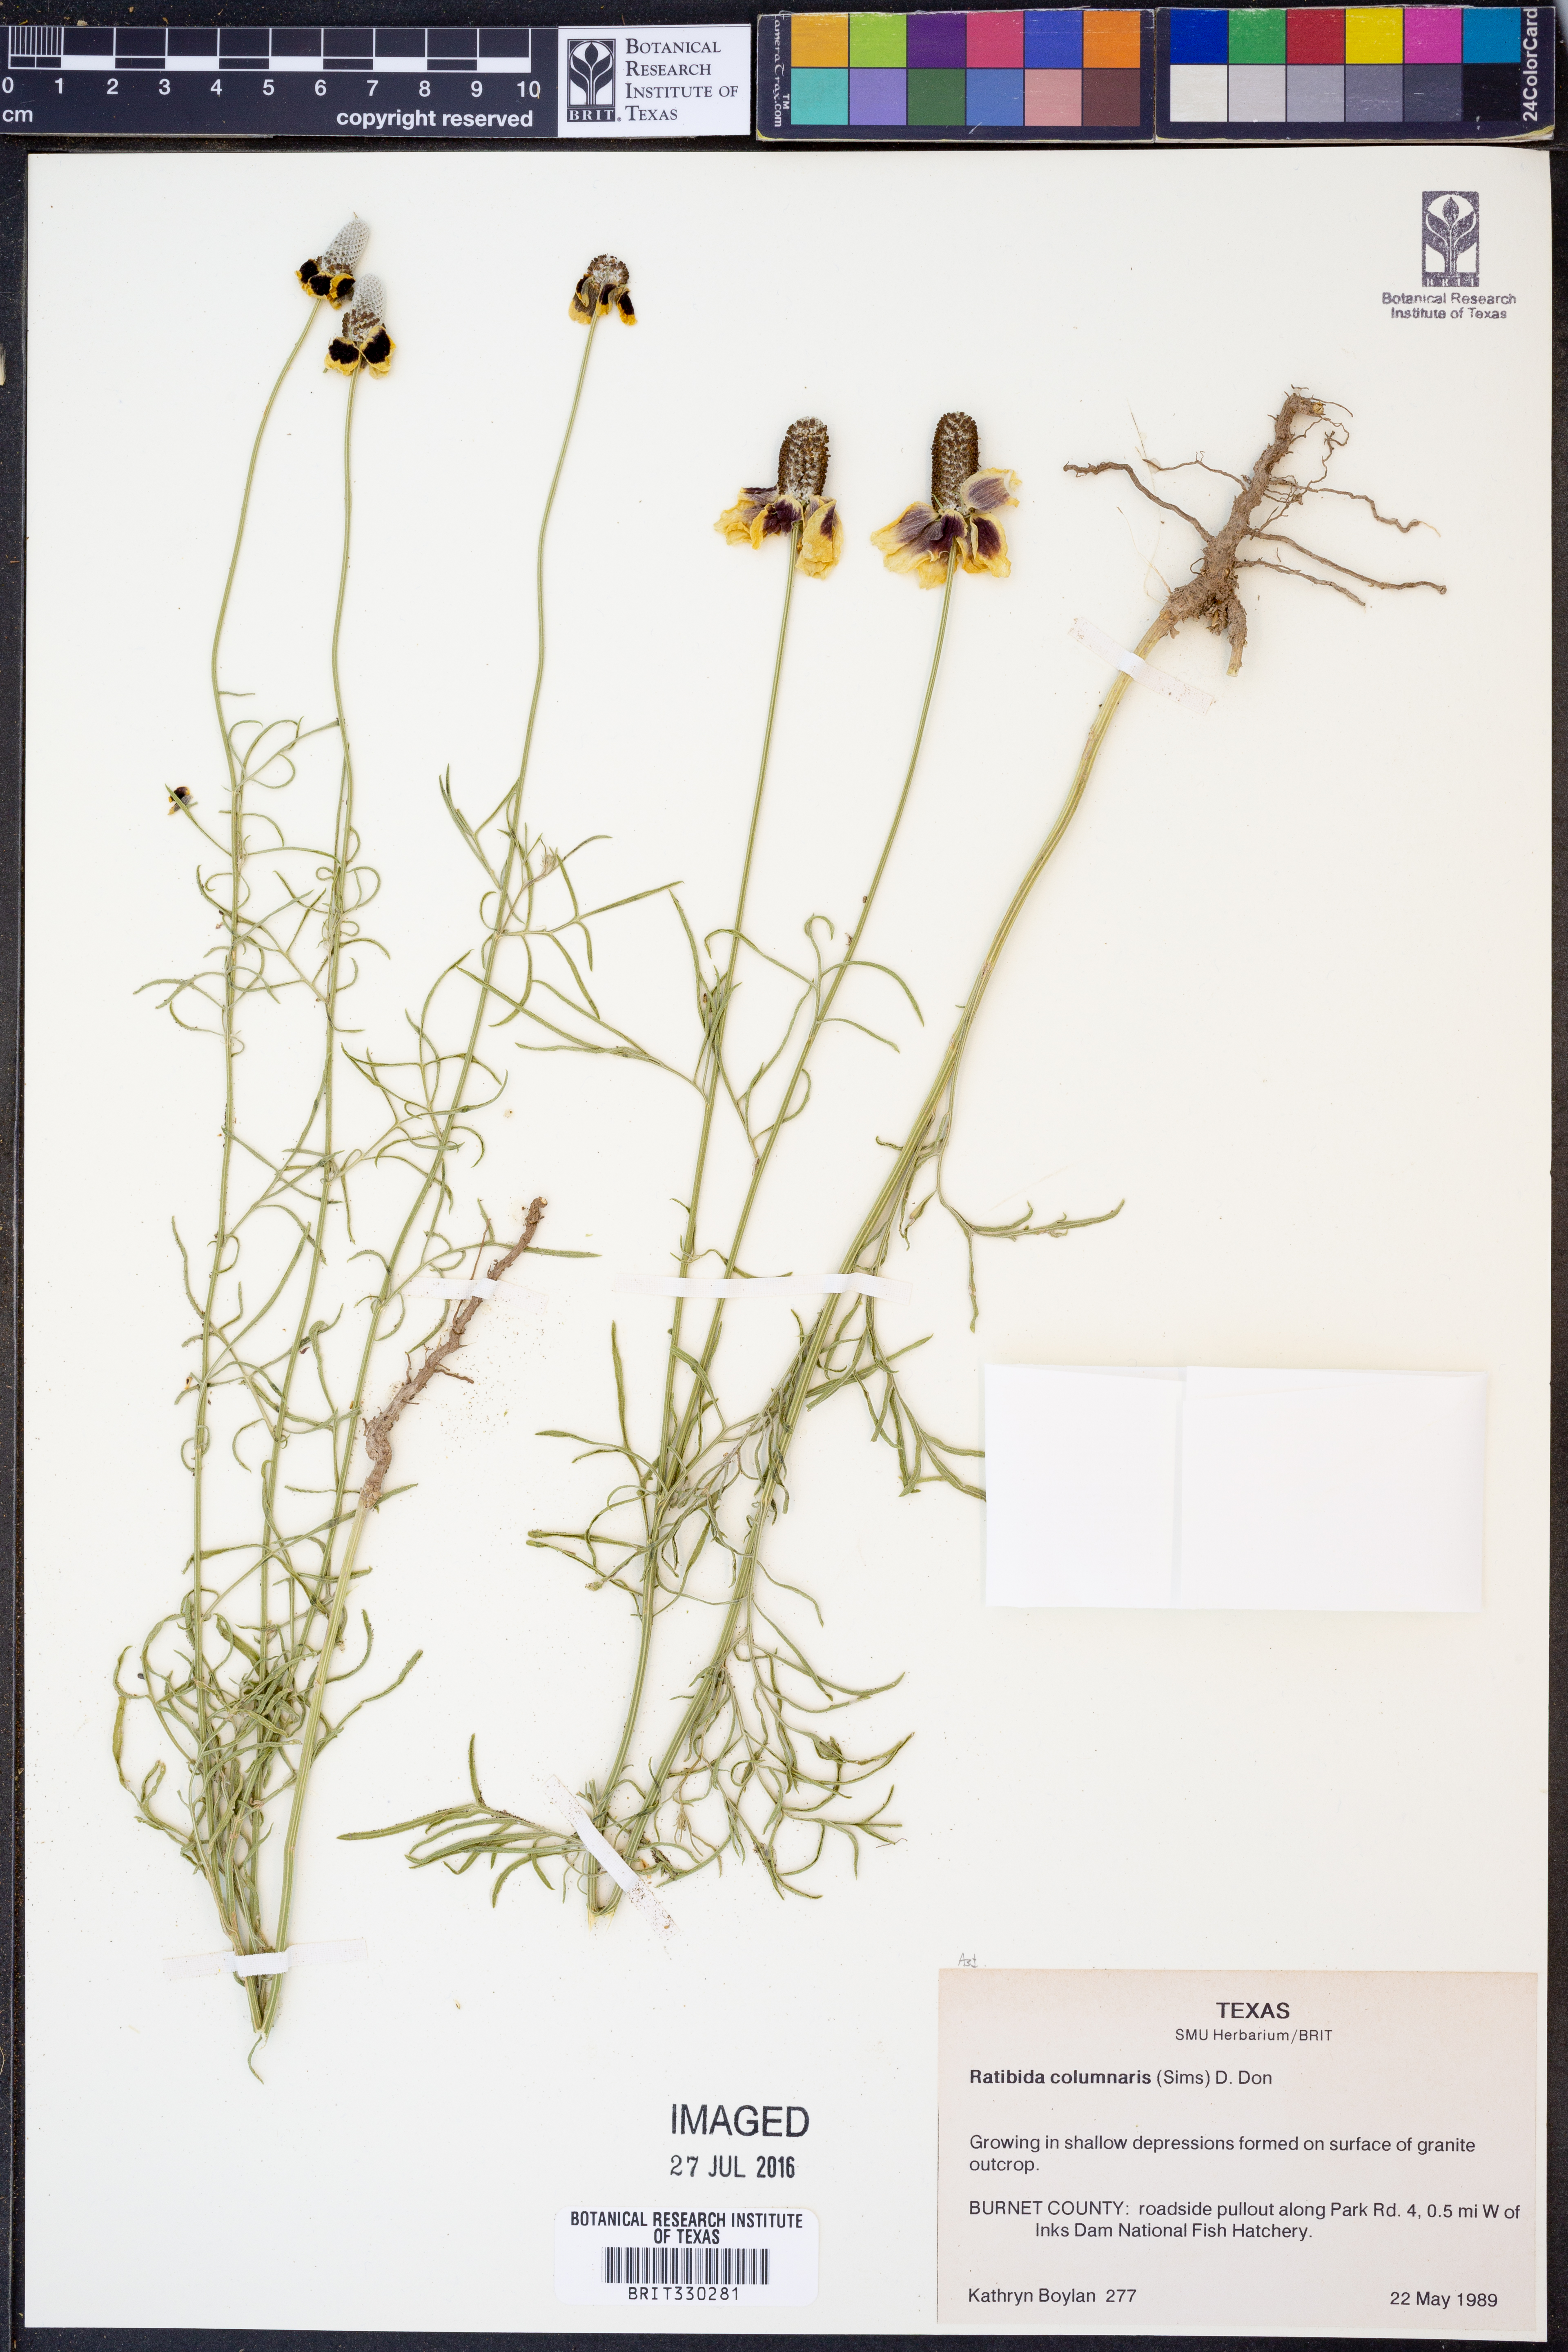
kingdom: Plantae
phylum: Tracheophyta
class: Magnoliopsida
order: Asterales
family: Asteraceae
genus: Ratibida
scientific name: Ratibida columnifera
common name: Prairie coneflower
